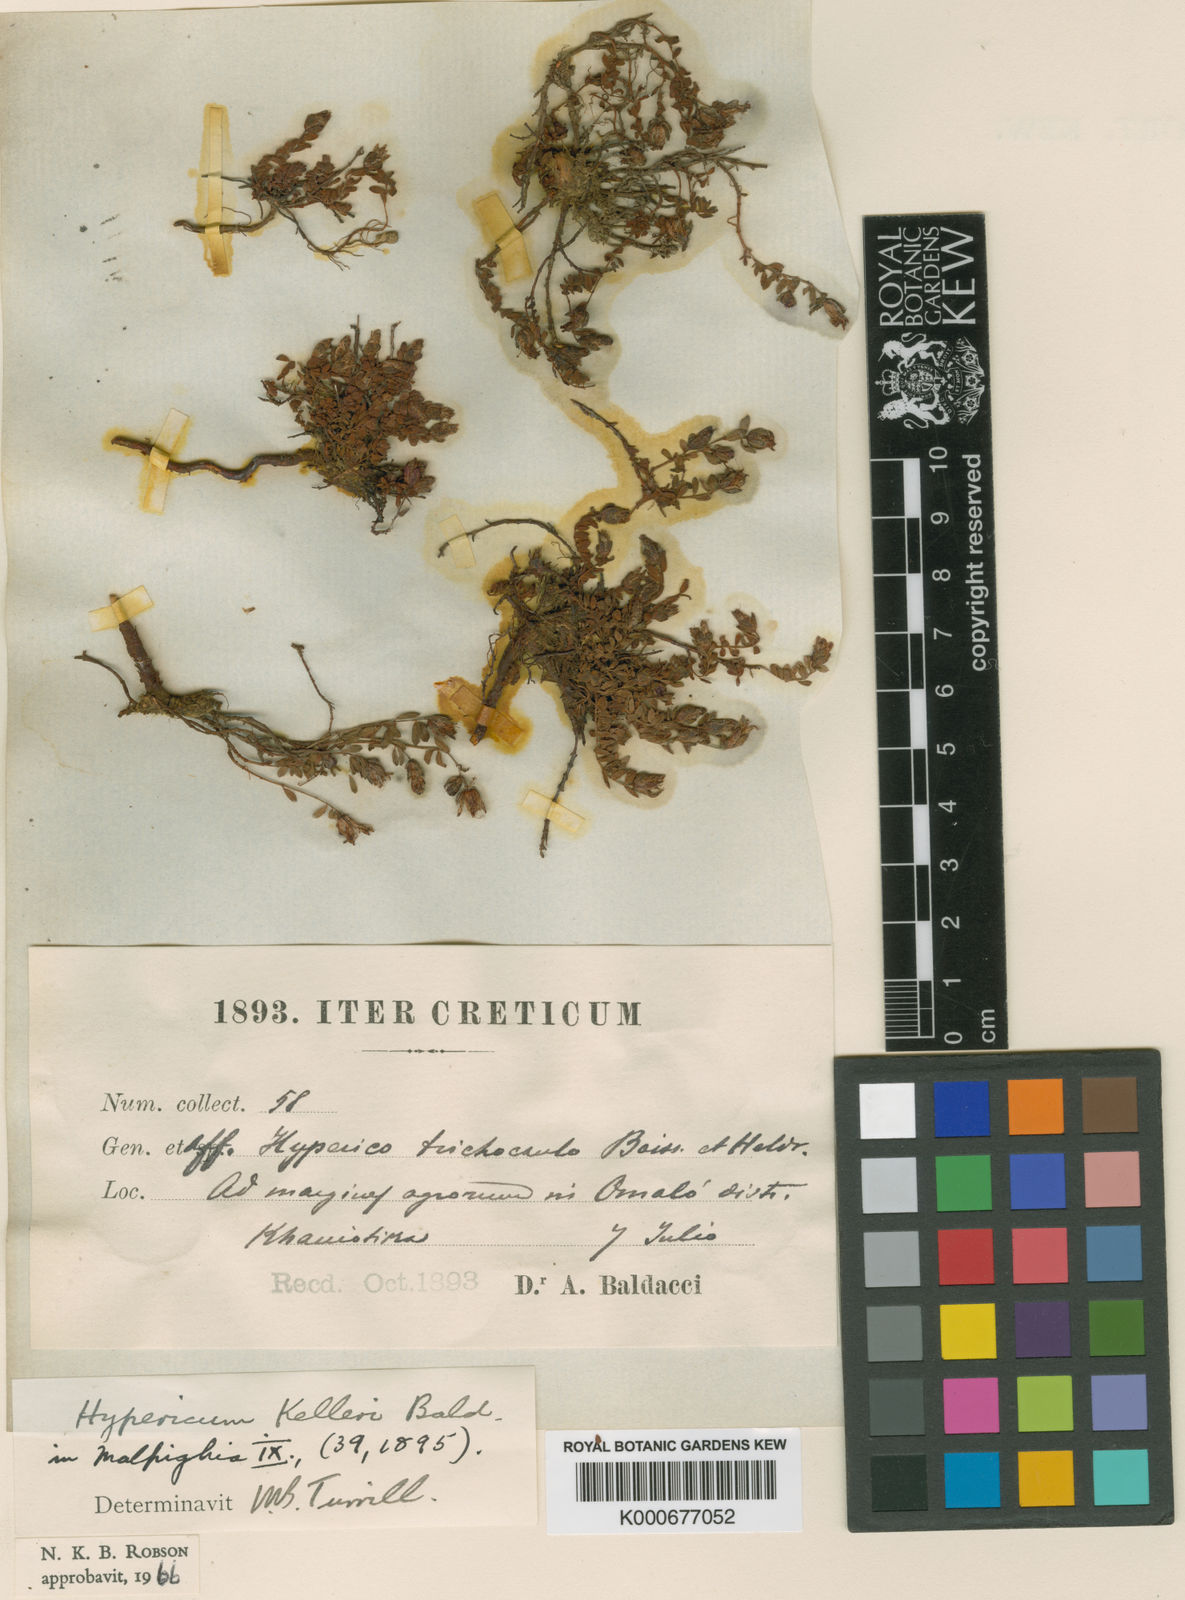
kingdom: Plantae
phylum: Tracheophyta
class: Magnoliopsida
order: Malpighiales
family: Hypericaceae
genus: Hypericum
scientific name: Hypericum kelleri
